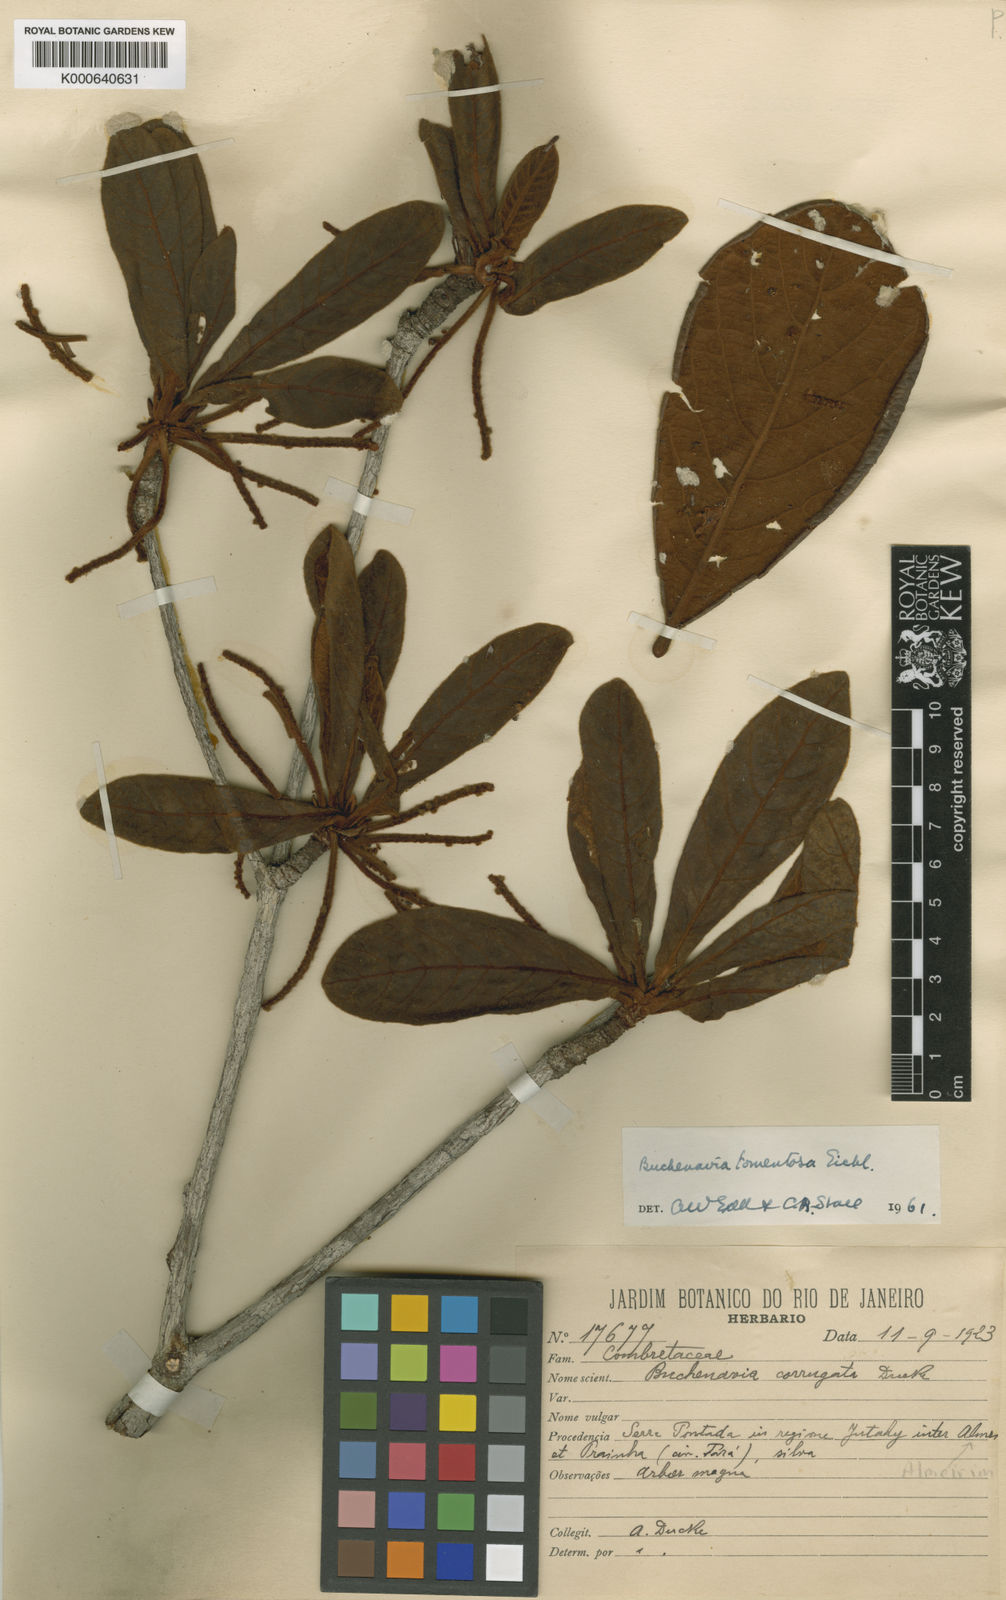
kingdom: Plantae
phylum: Tracheophyta
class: Magnoliopsida
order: Myrtales
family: Combretaceae
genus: Terminalia
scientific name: Terminalia corrugata
